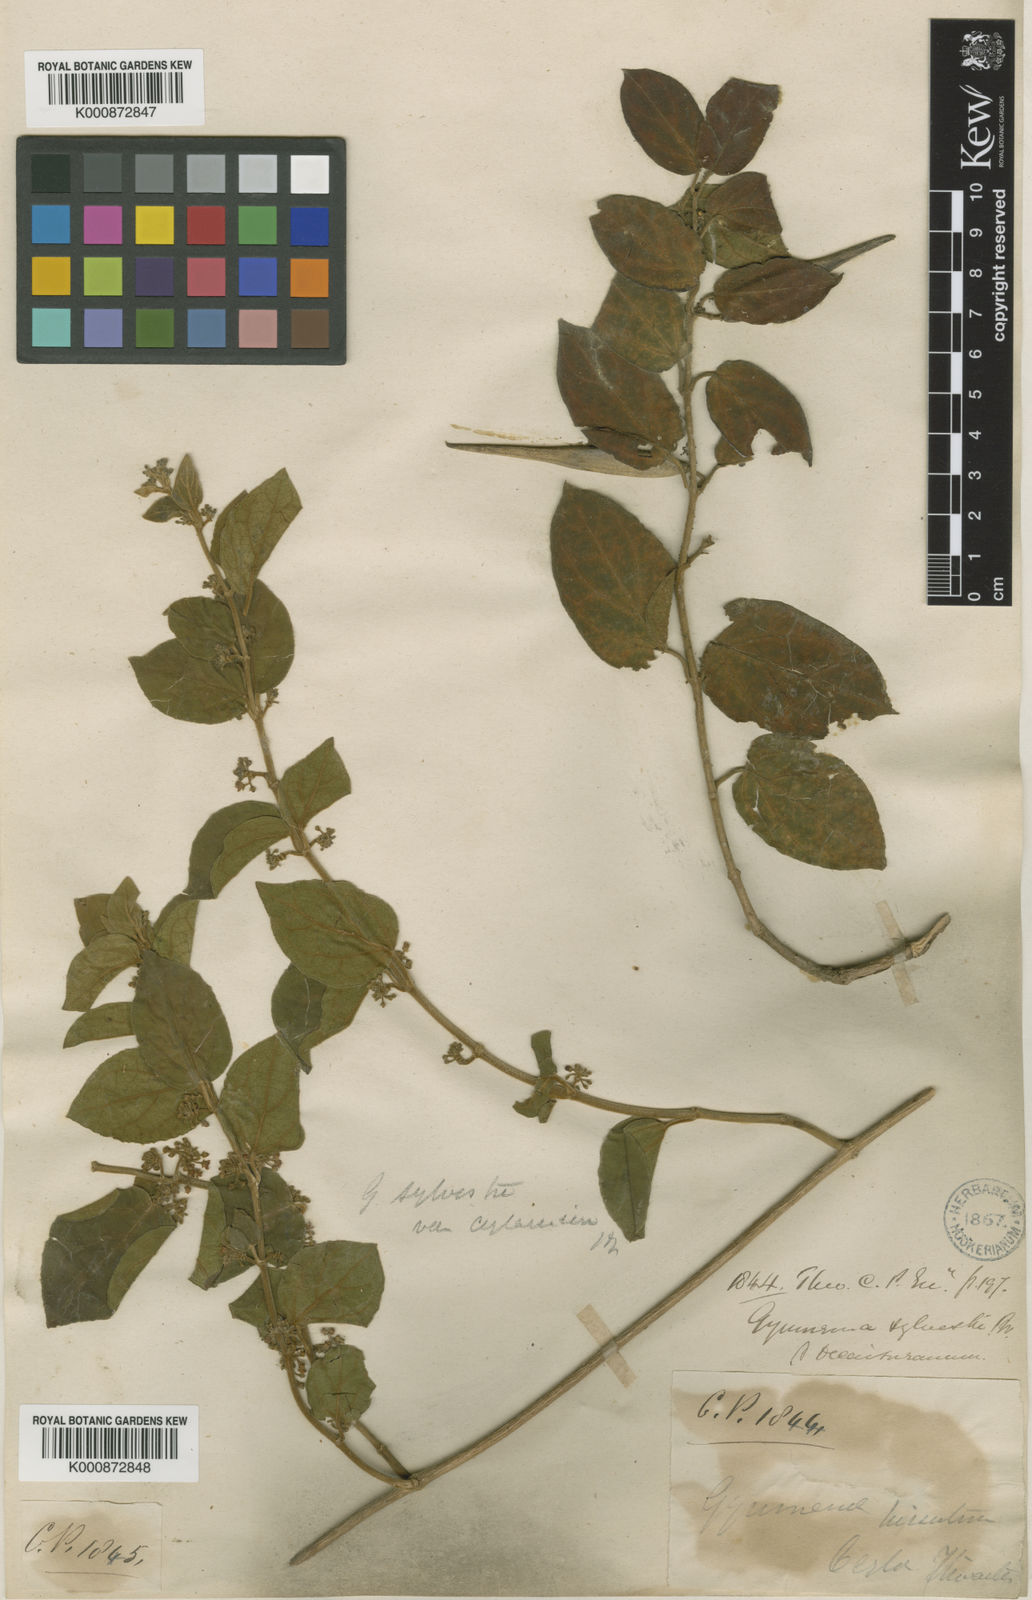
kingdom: Plantae
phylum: Tracheophyta
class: Magnoliopsida
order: Gentianales
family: Apocynaceae
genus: Gymnema
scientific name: Gymnema sylvestre
